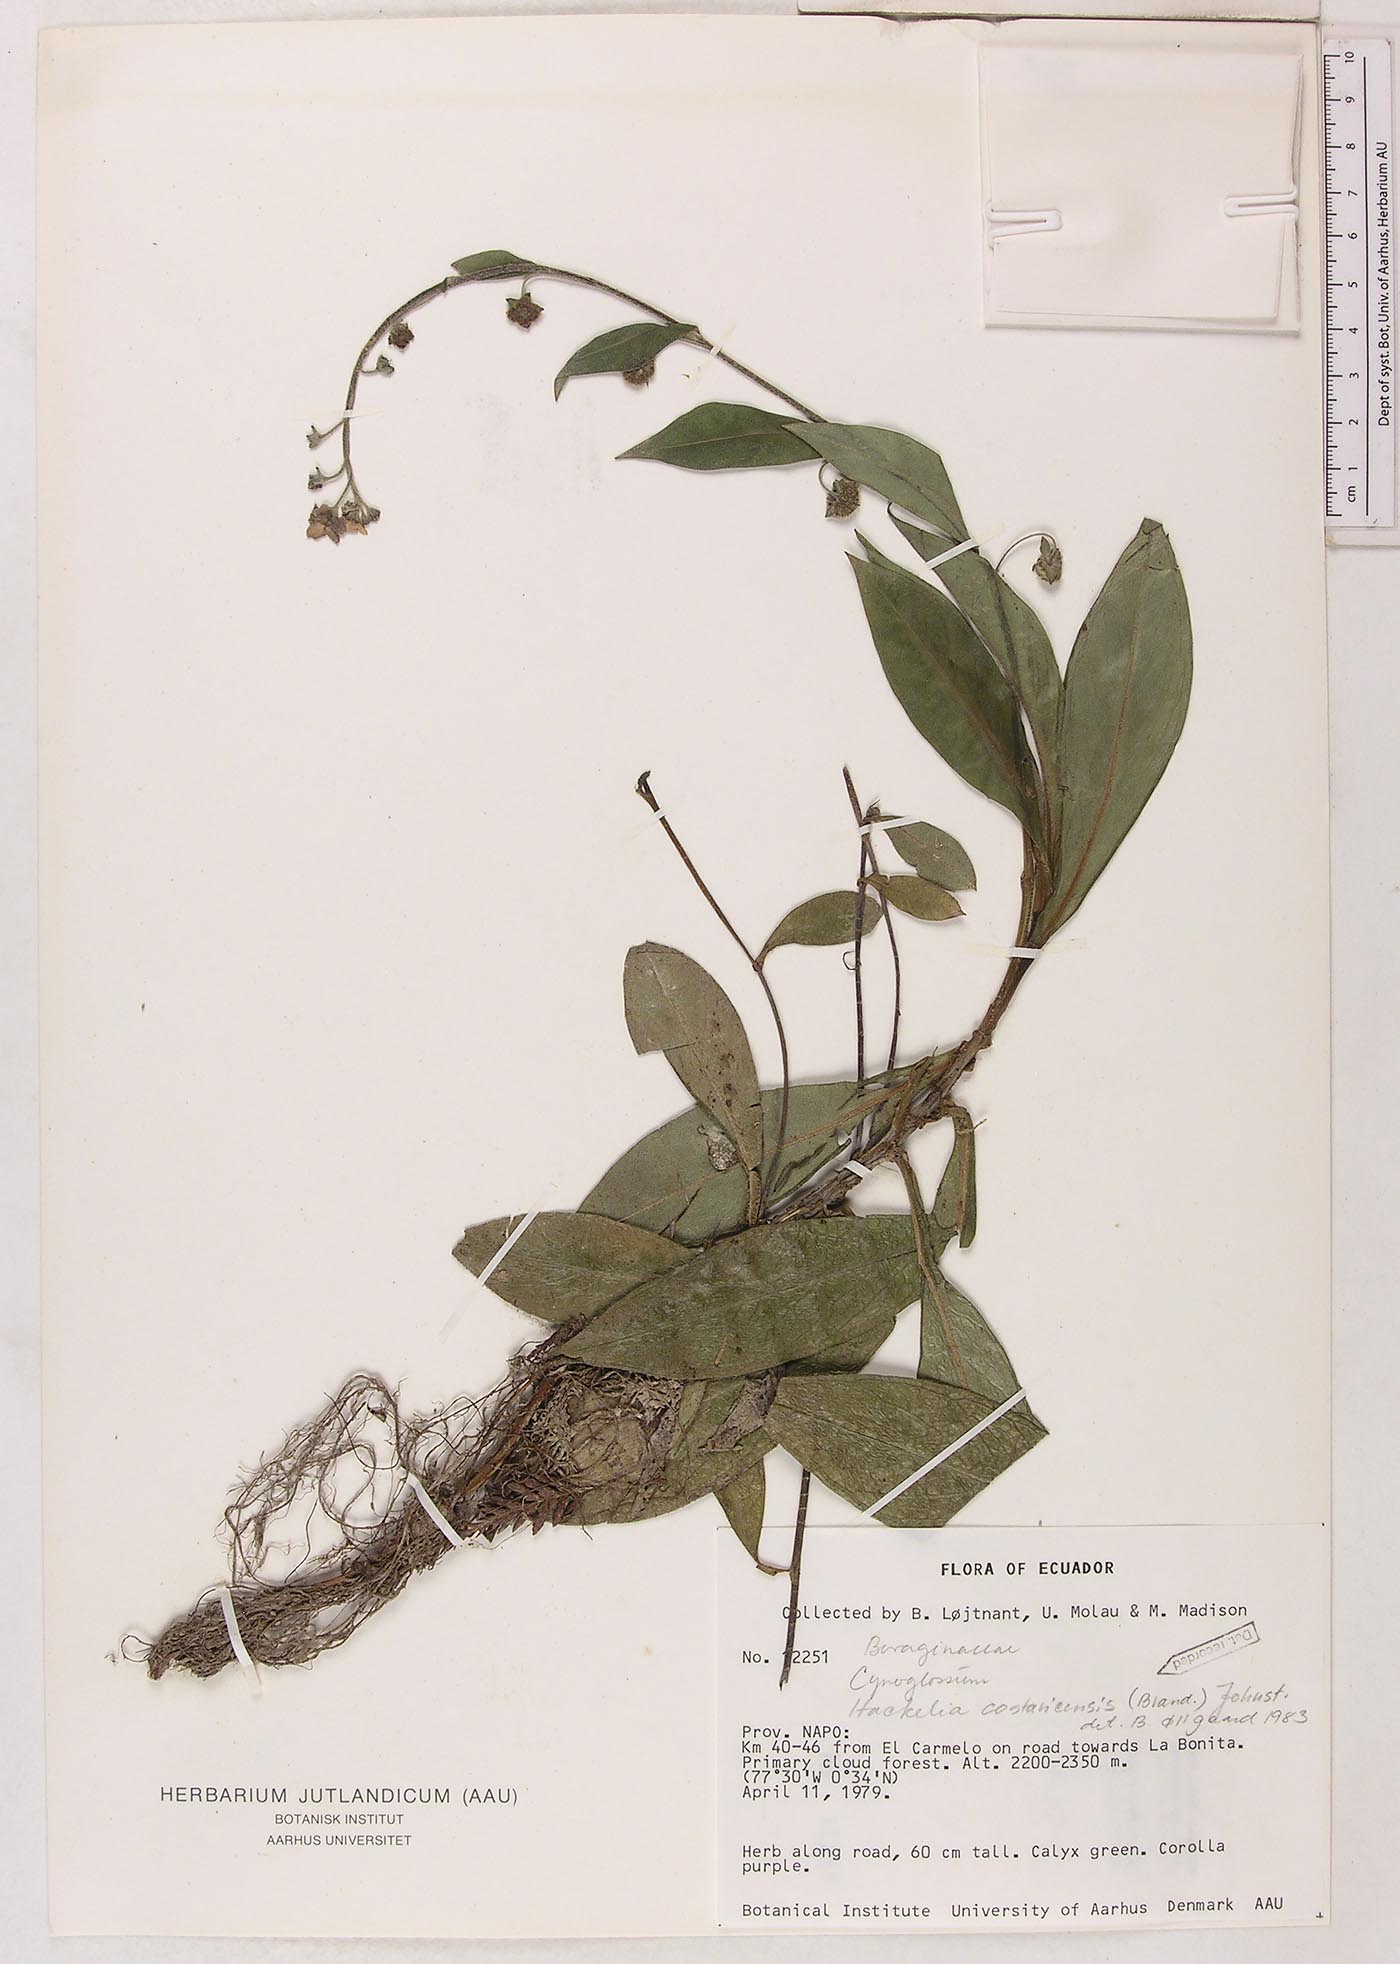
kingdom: Plantae
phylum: Tracheophyta
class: Magnoliopsida
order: Boraginales
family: Boraginaceae
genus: Selkirkia
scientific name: Selkirkia trianaeum
